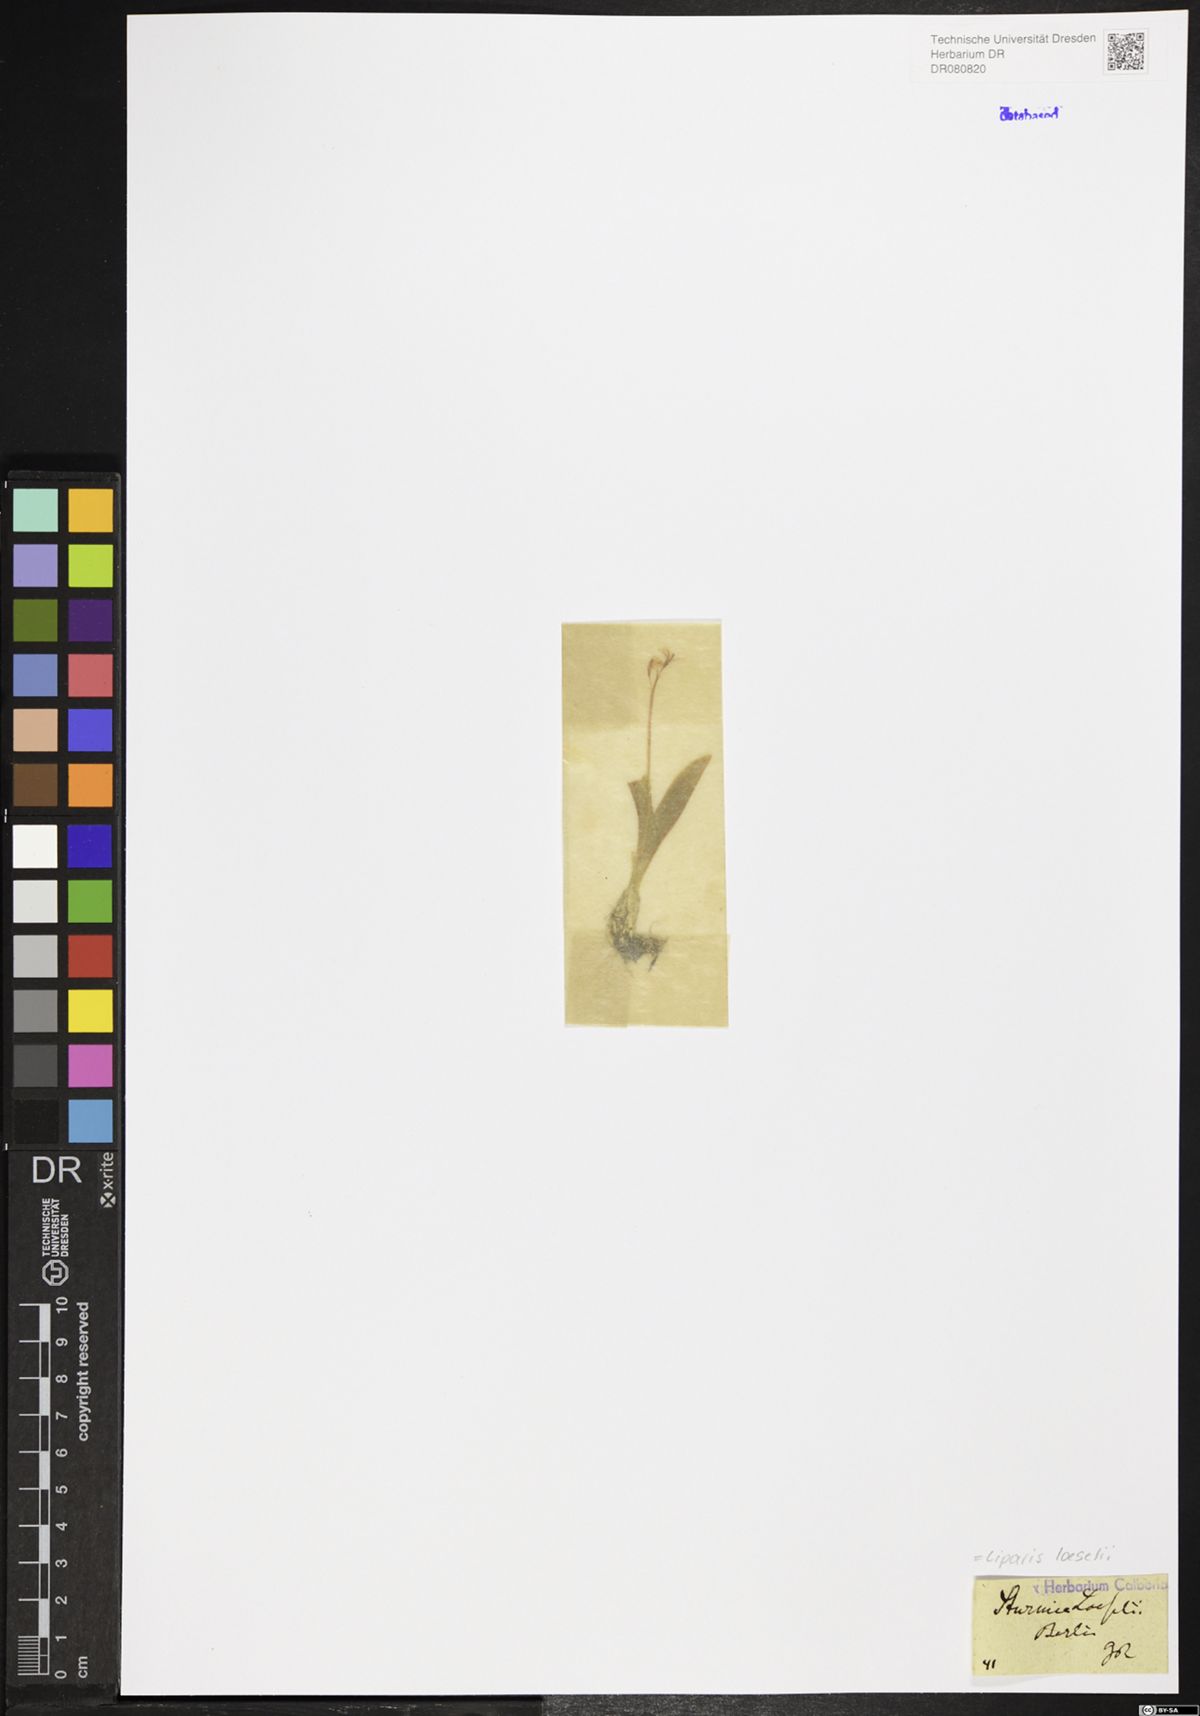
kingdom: Animalia
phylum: Arthropoda
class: Insecta
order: Coleoptera
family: Curculionidae
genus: Liparis
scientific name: Liparis loeselii
